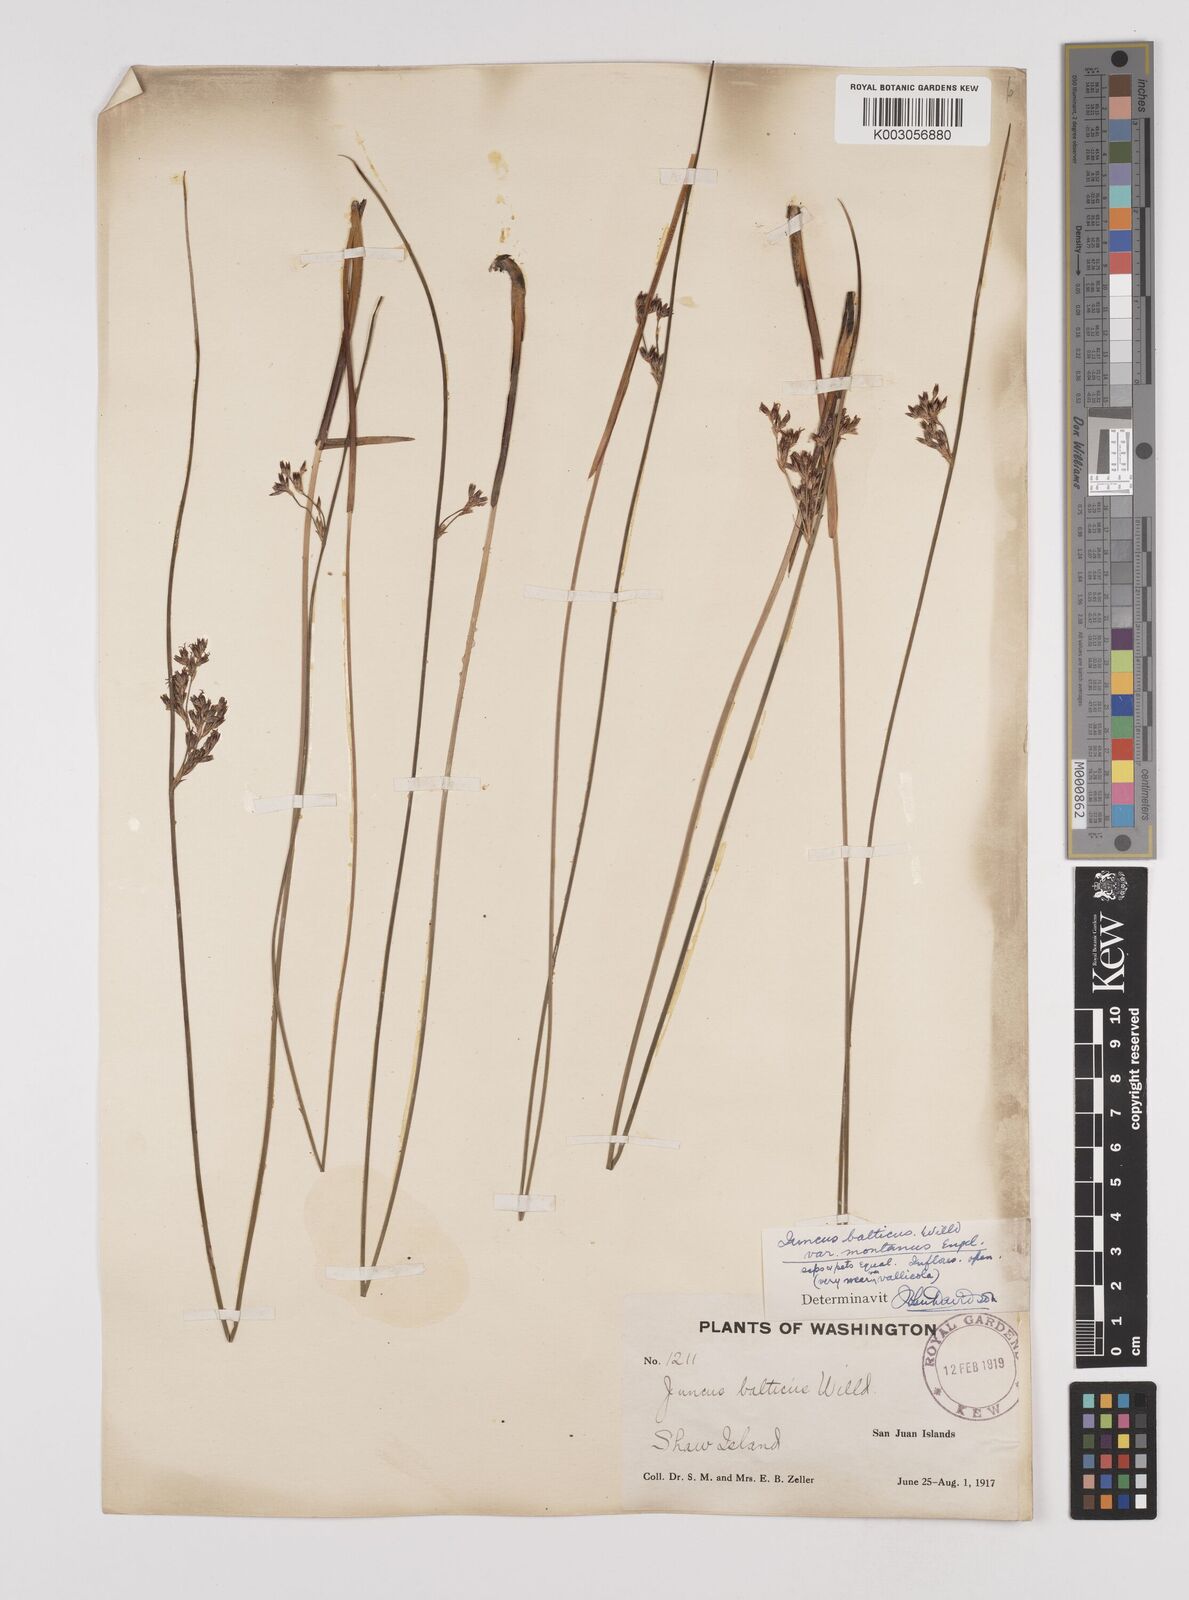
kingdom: Plantae
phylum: Tracheophyta
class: Liliopsida
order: Poales
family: Juncaceae
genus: Juncus
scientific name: Juncus
